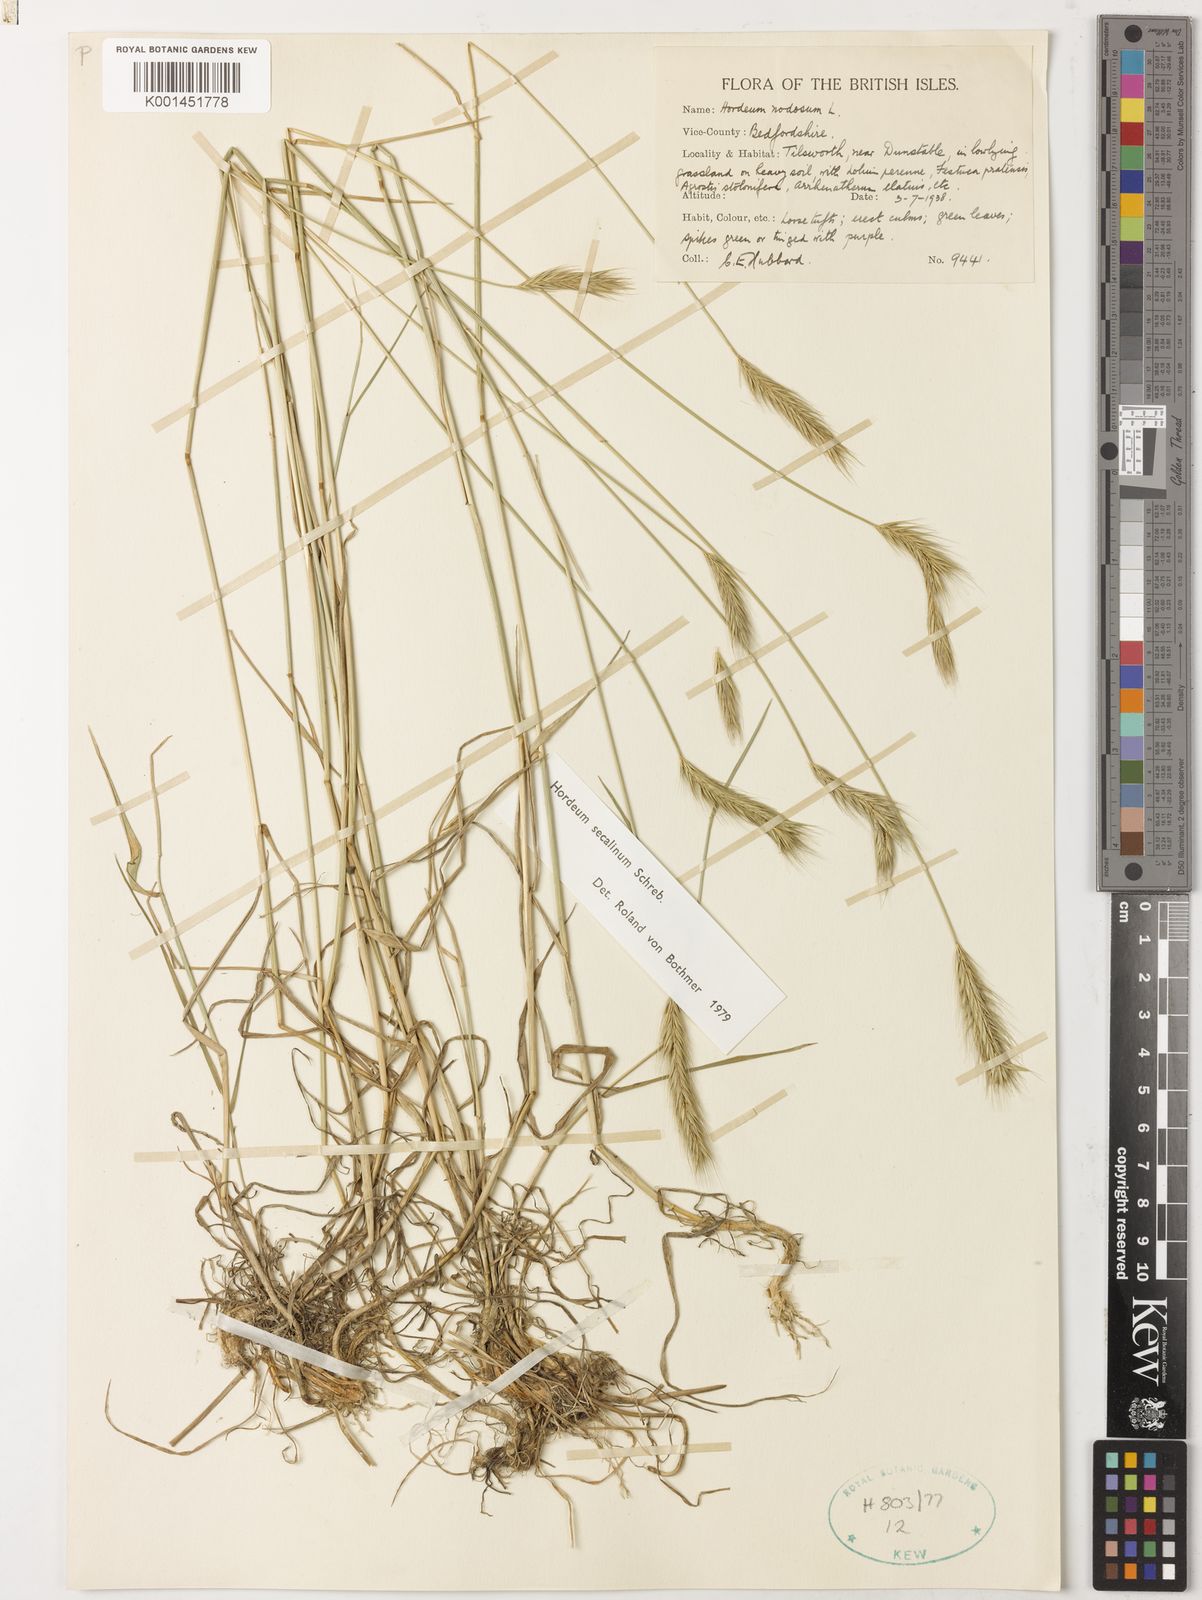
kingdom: Plantae
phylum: Tracheophyta
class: Liliopsida
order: Poales
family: Poaceae
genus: Hordeum
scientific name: Hordeum secalinum
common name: Meadow barley
